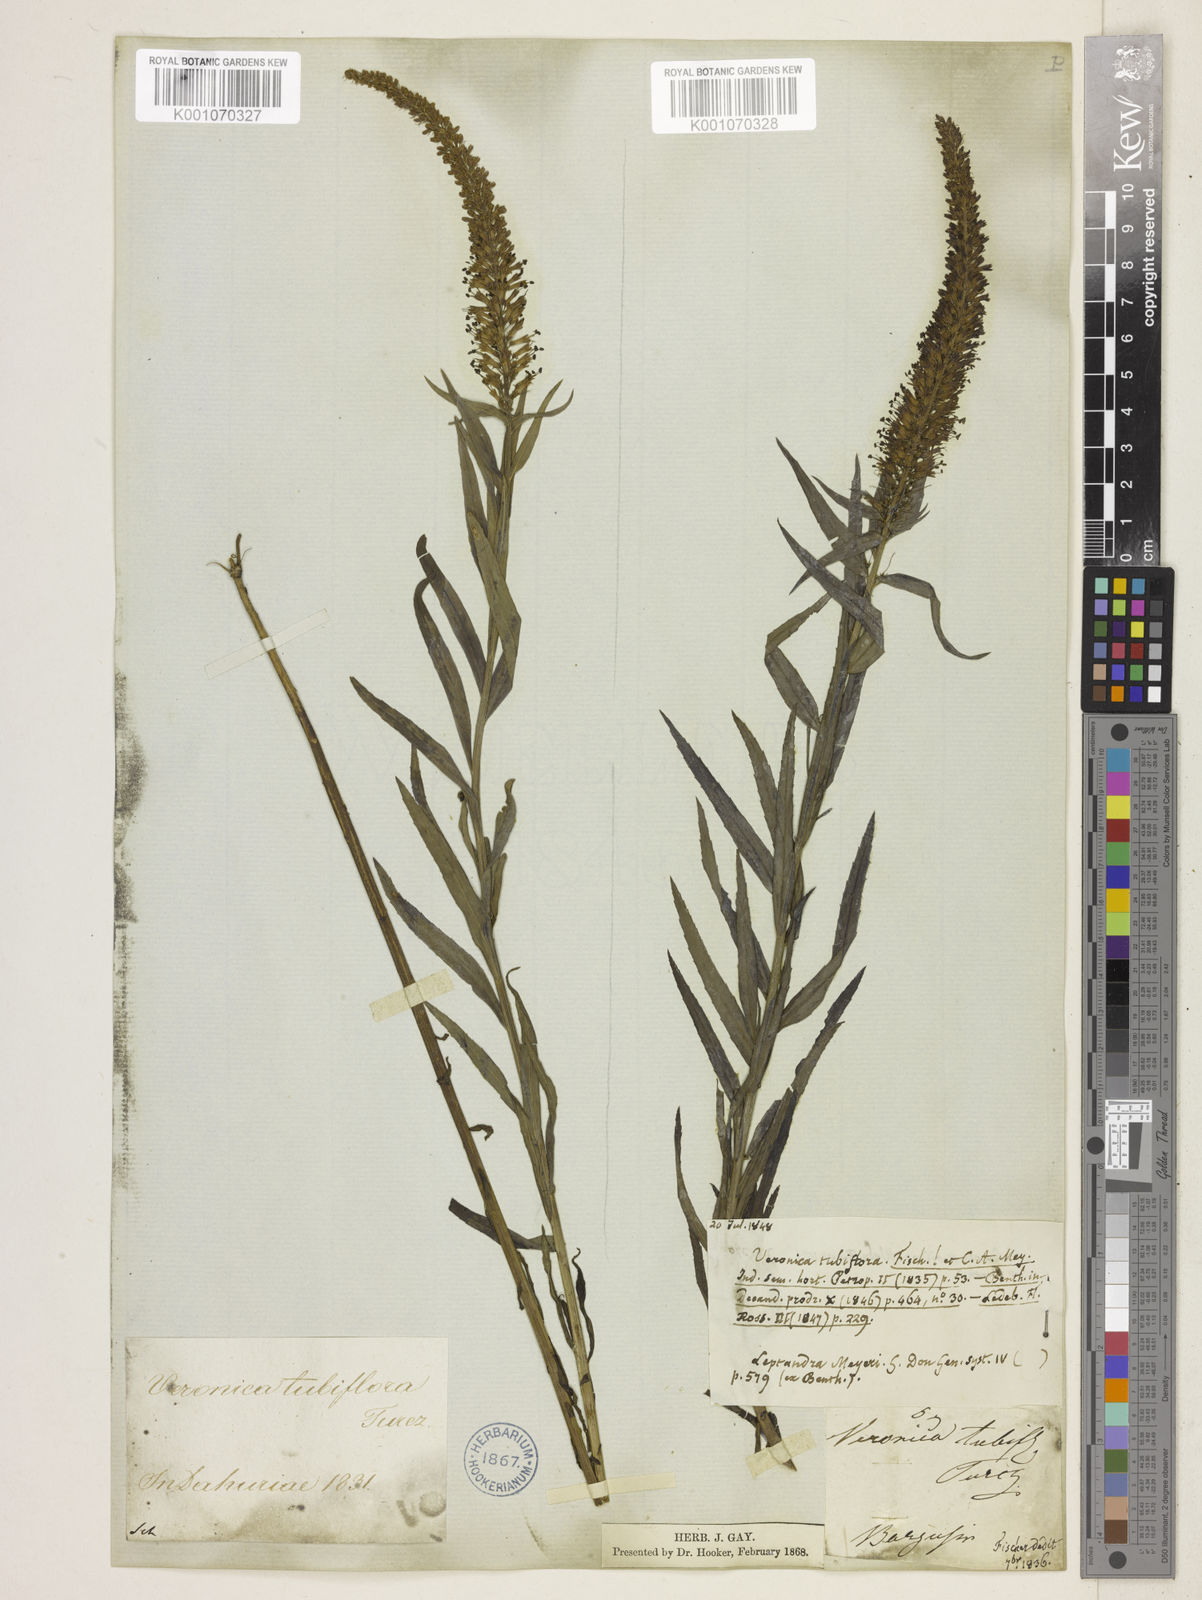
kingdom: Plantae
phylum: Tracheophyta
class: Magnoliopsida
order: Lamiales
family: Plantaginaceae
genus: Veronicastrum
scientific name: Veronicastrum tubiflorum
